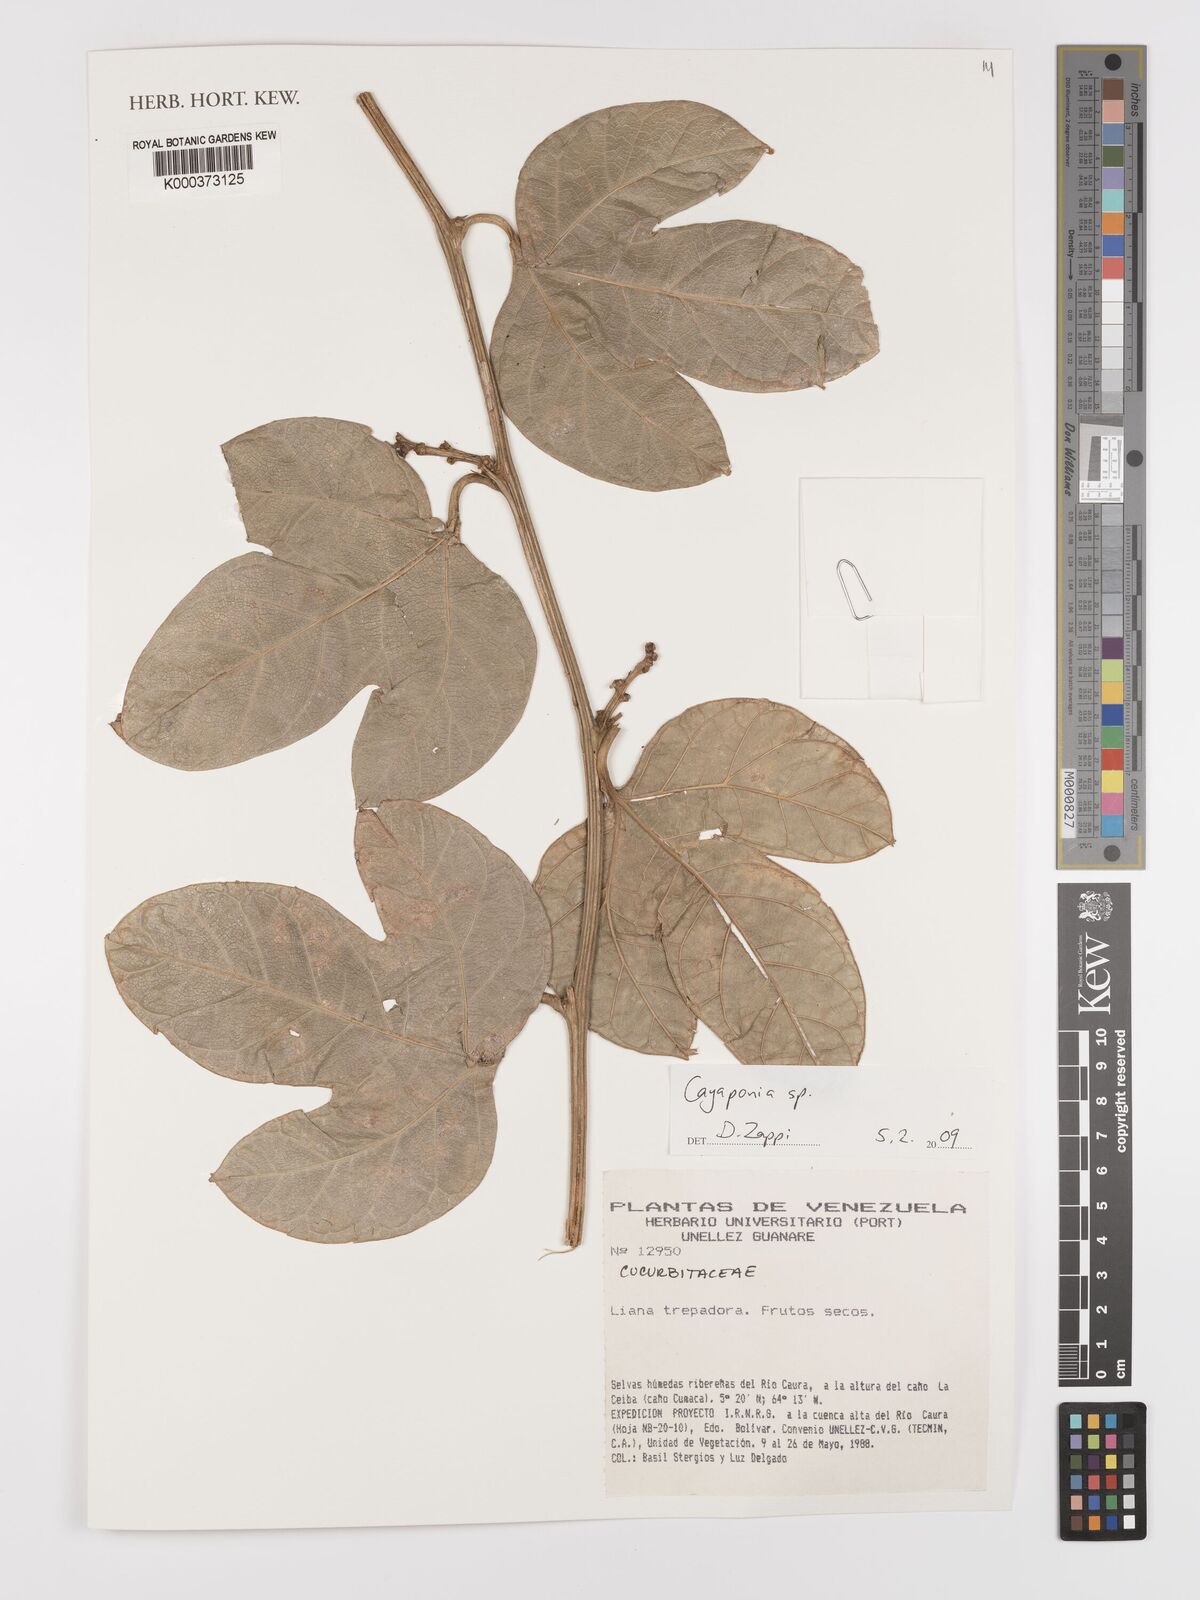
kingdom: Plantae
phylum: Tracheophyta
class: Magnoliopsida
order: Cucurbitales
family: Cucurbitaceae
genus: Cayaponia
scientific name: Cayaponia
